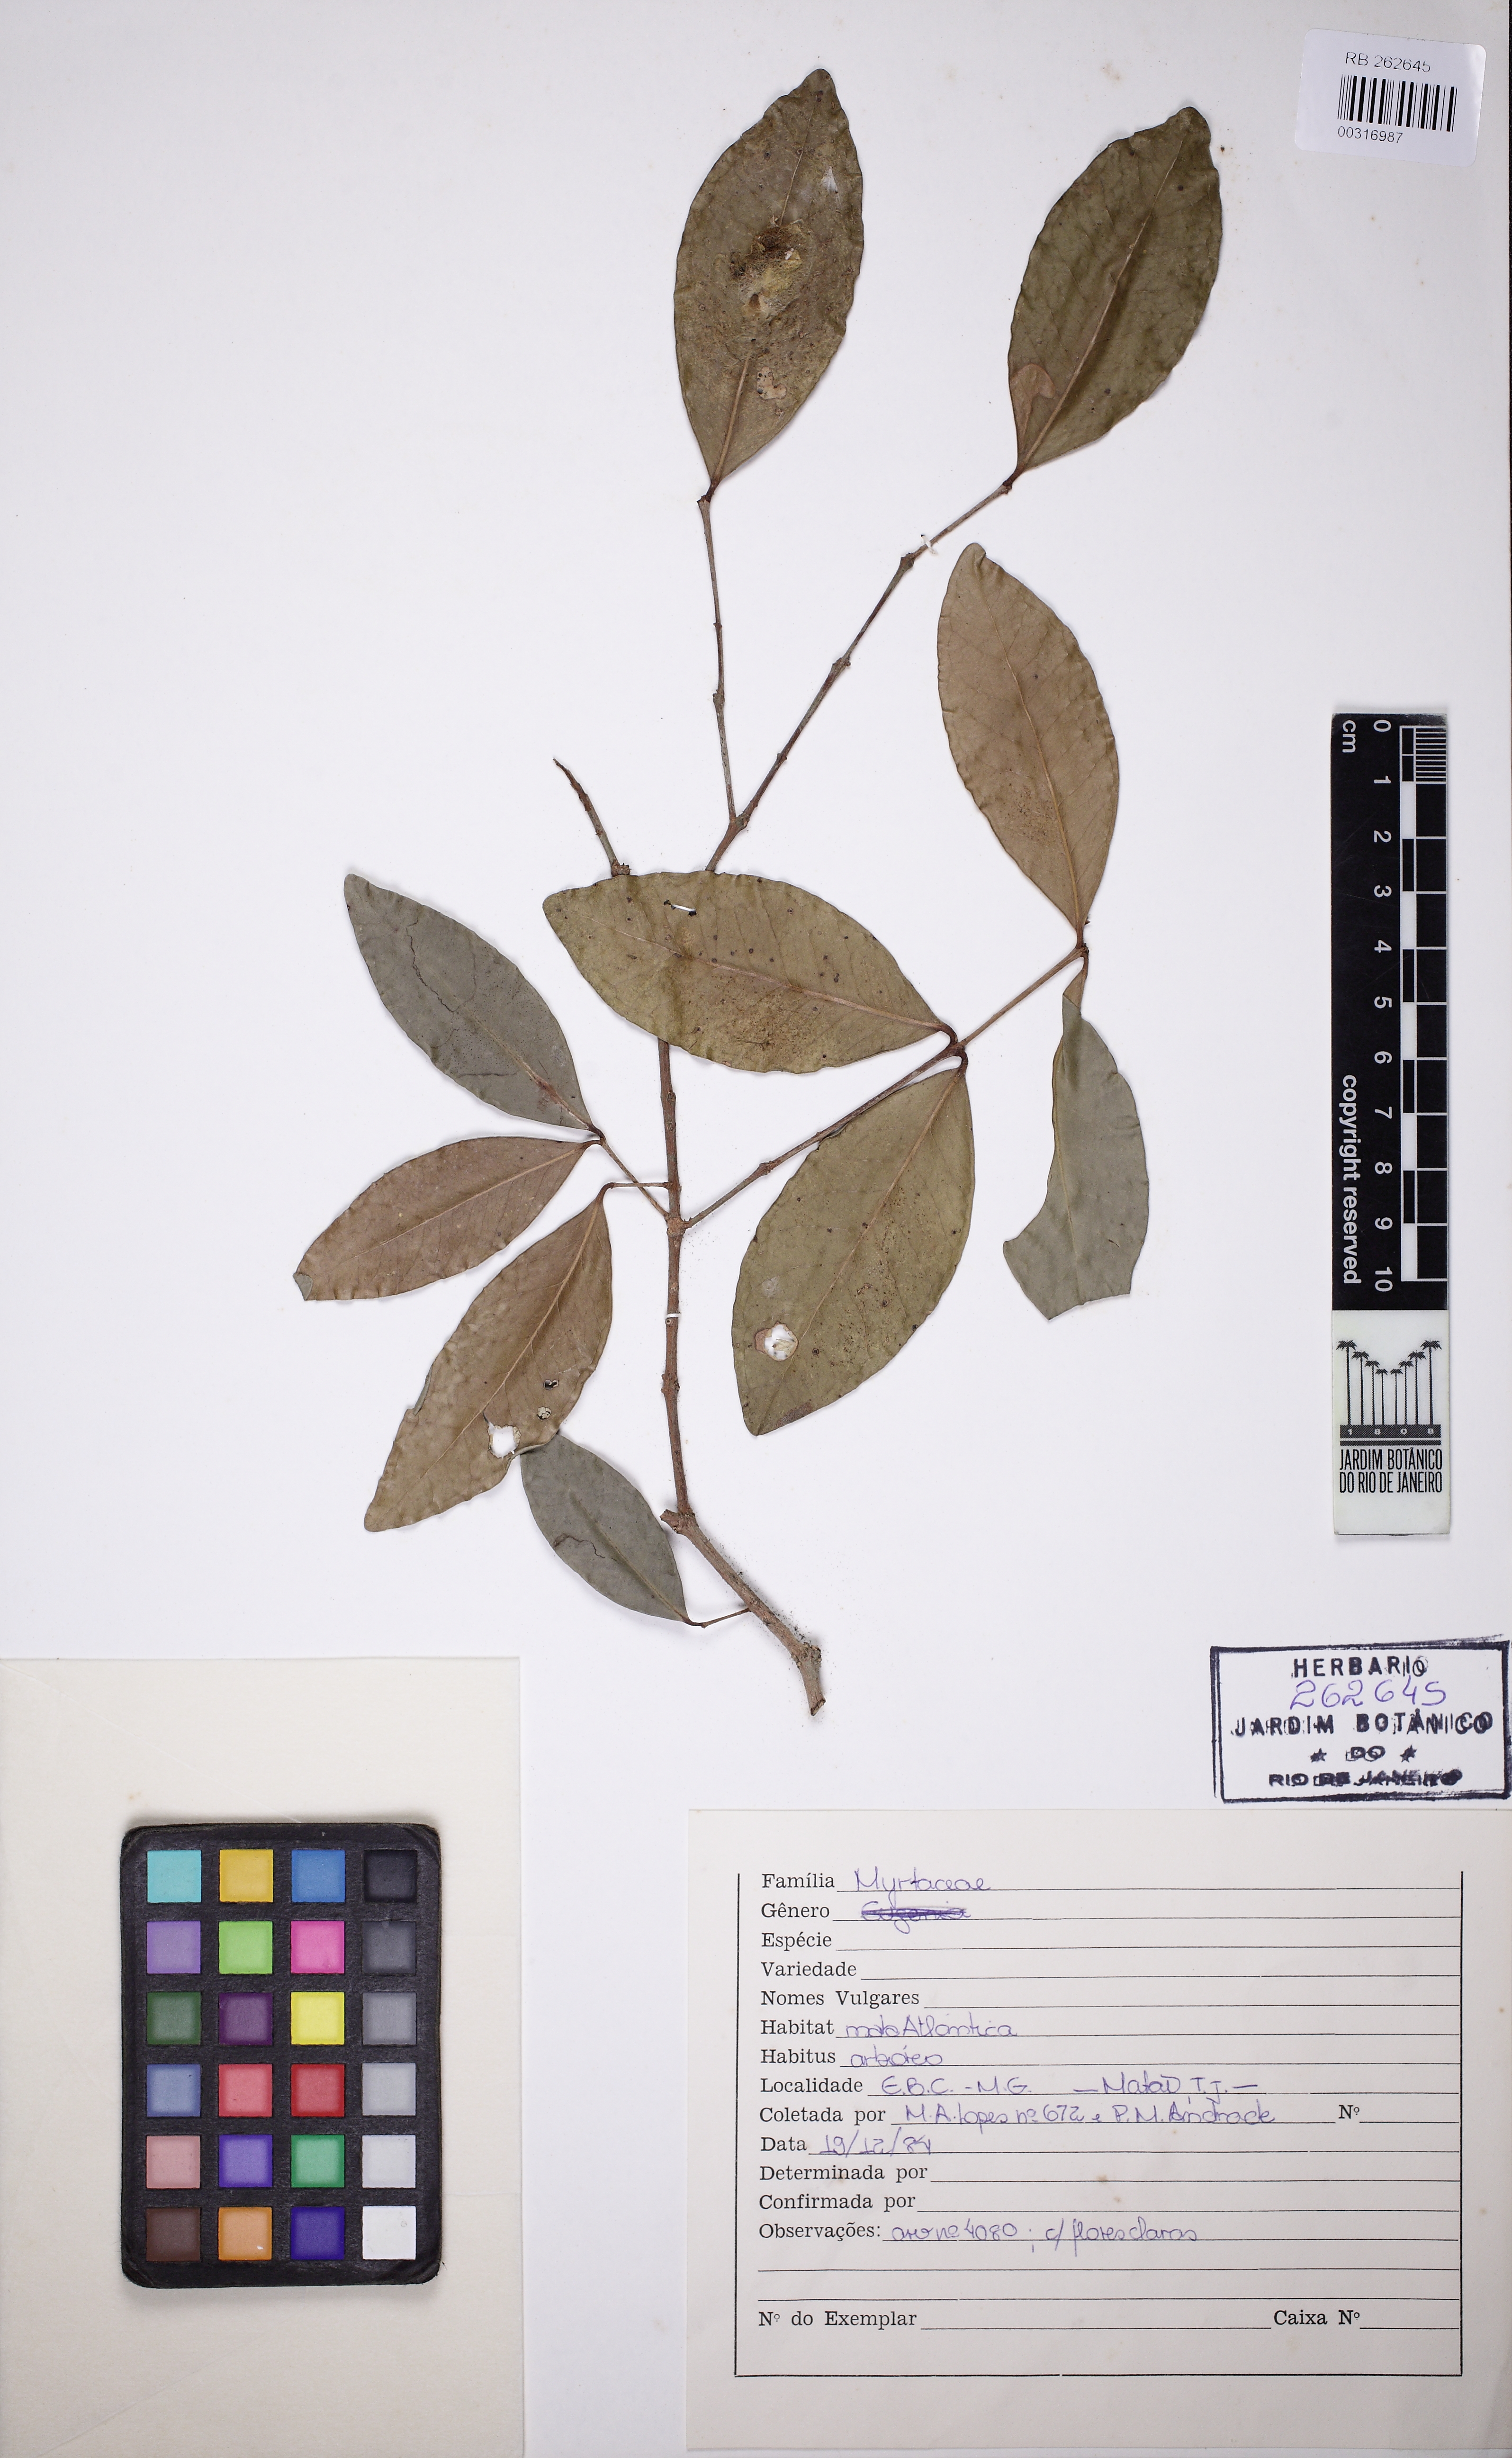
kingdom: Plantae
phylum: Tracheophyta
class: Magnoliopsida
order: Myrtales
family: Myrtaceae
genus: Eugenia
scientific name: Eugenia
